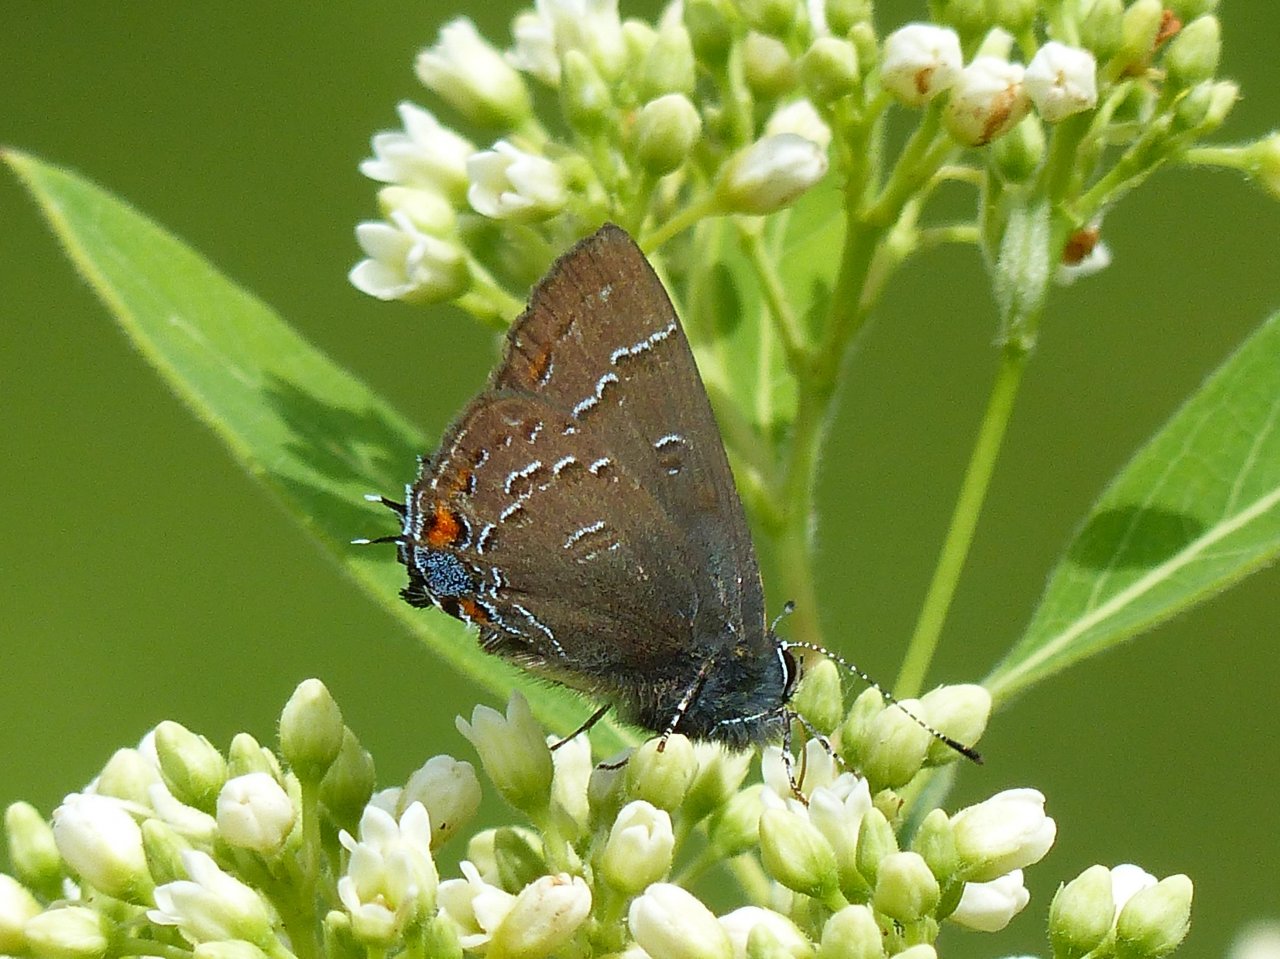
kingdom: Animalia
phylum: Arthropoda
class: Insecta
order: Lepidoptera
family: Lycaenidae
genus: Satyrium
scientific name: Satyrium calanus
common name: Banded Hairstreak
